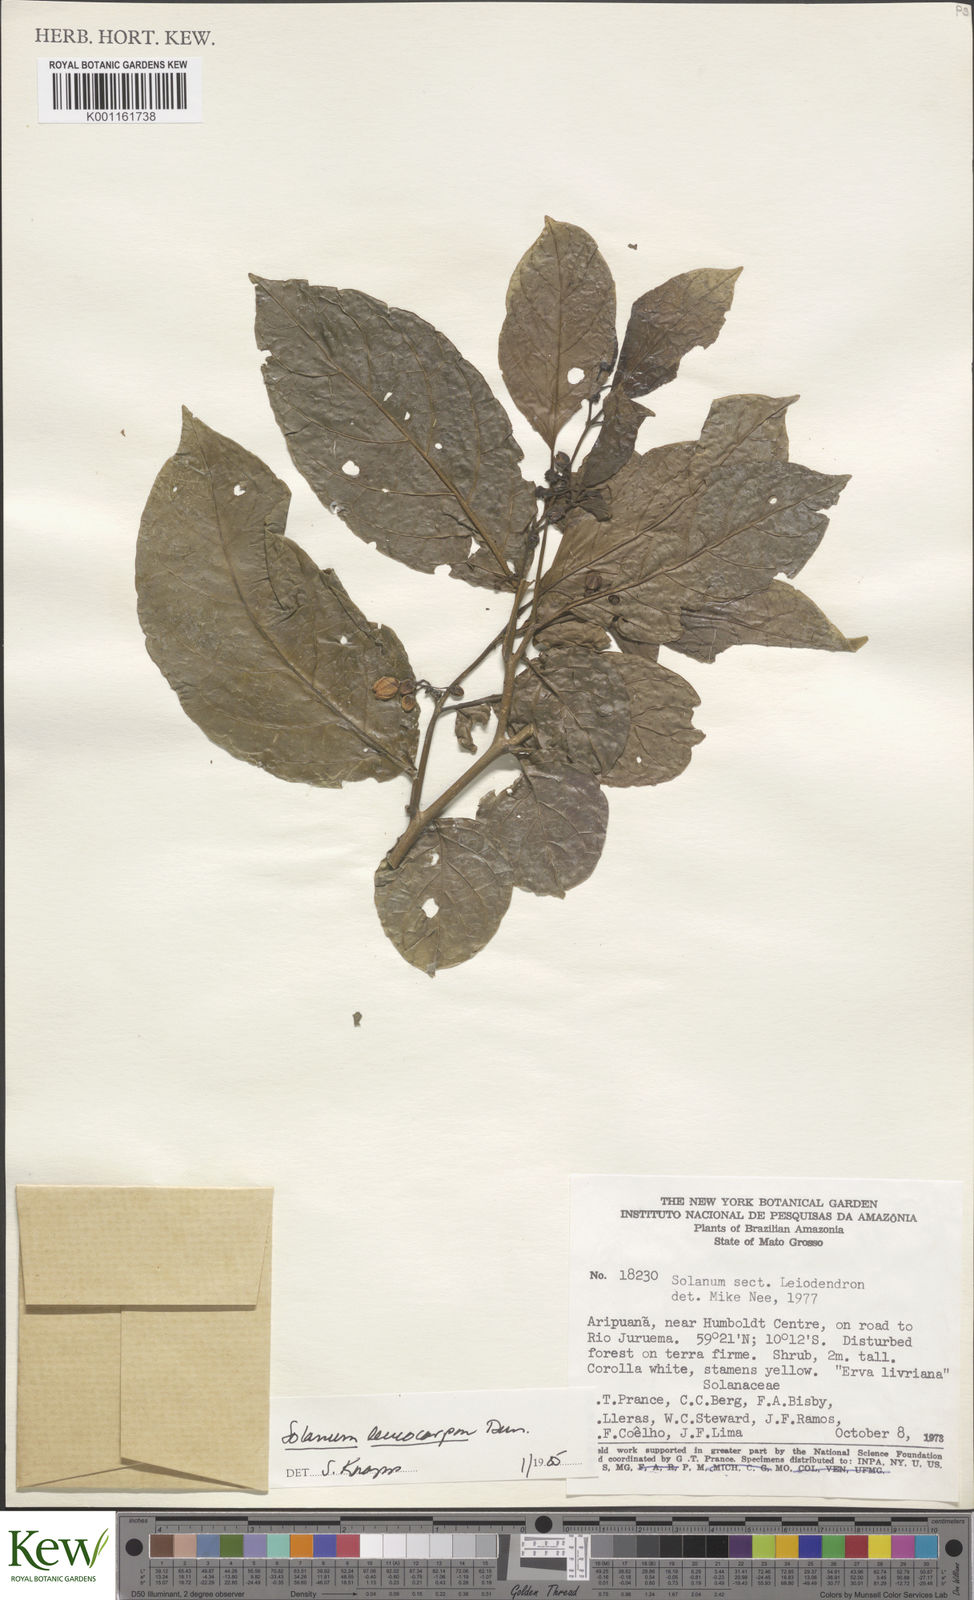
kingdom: Plantae
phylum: Tracheophyta
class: Magnoliopsida
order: Solanales
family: Solanaceae
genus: Solanum
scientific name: Solanum leucocarpon
